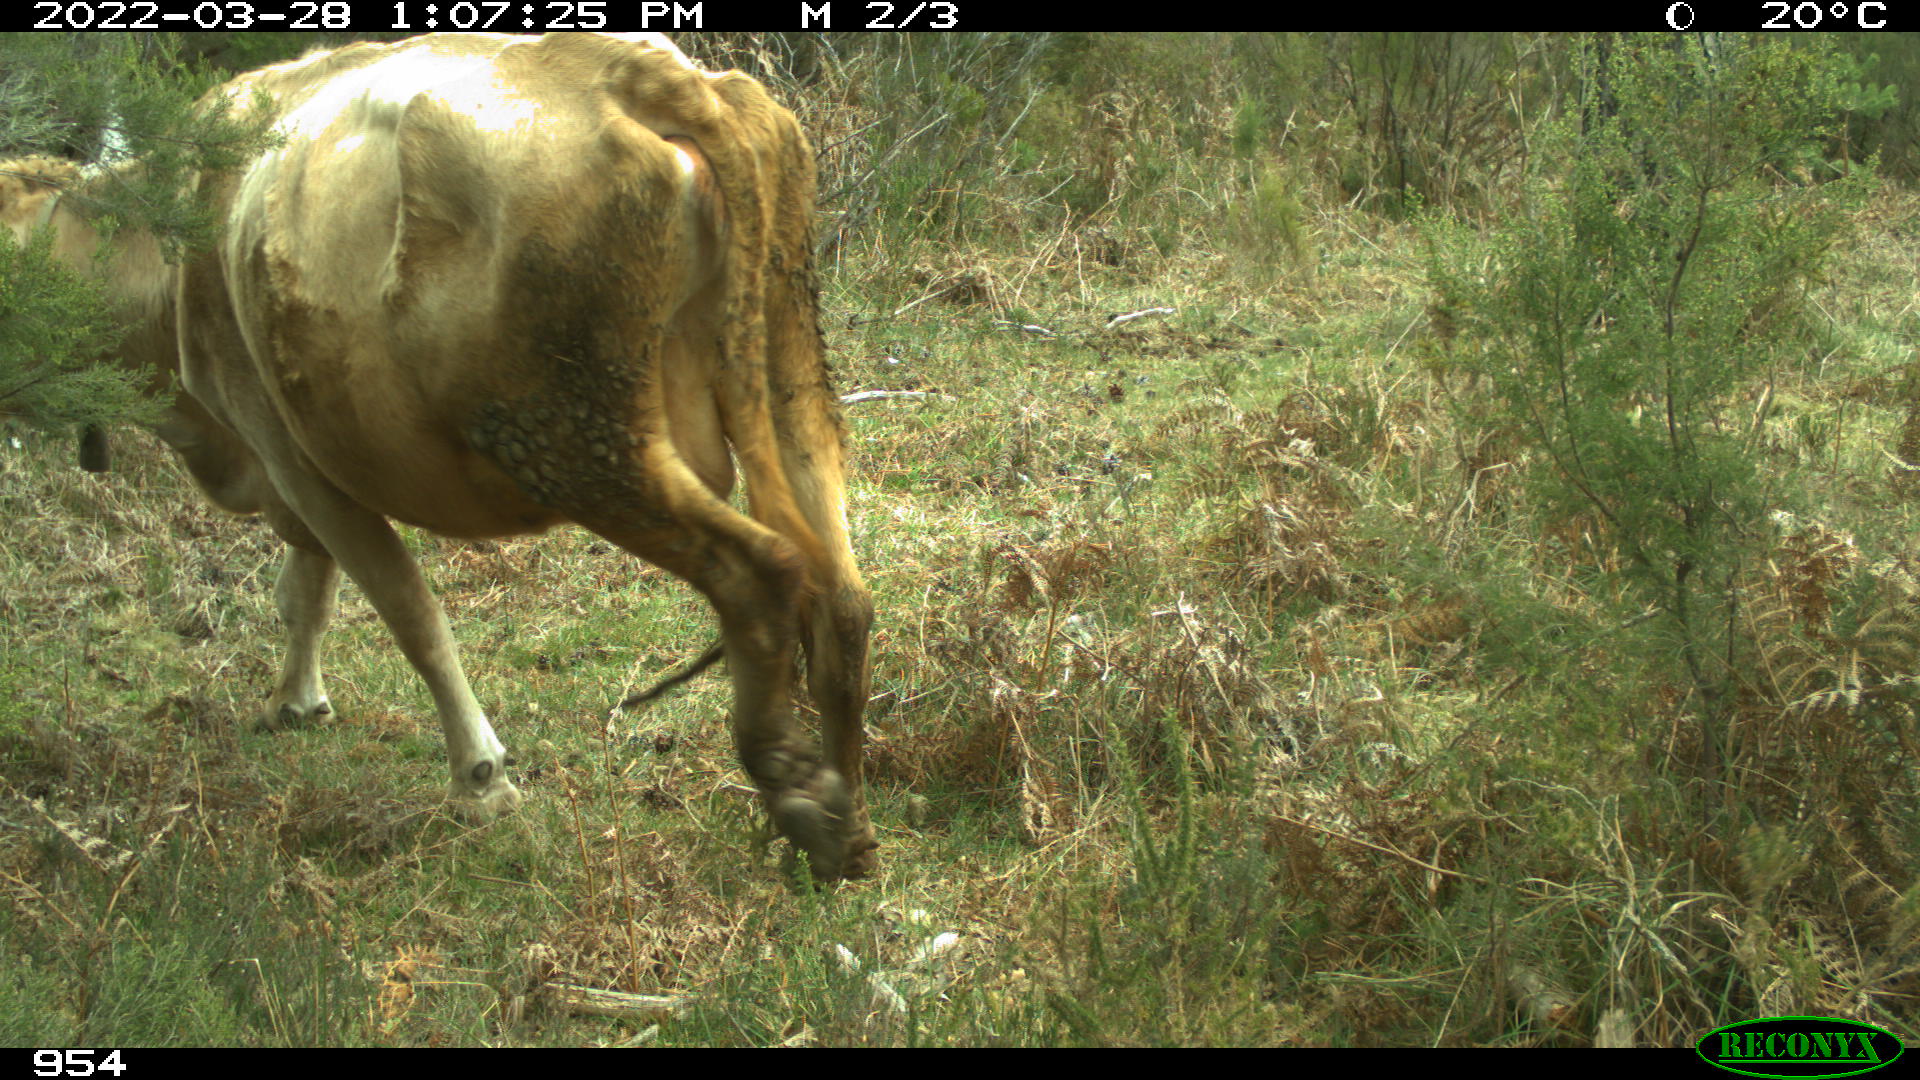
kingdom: Animalia
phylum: Chordata
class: Mammalia
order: Artiodactyla
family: Bovidae
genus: Bos
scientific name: Bos taurus
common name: Domesticated cattle
